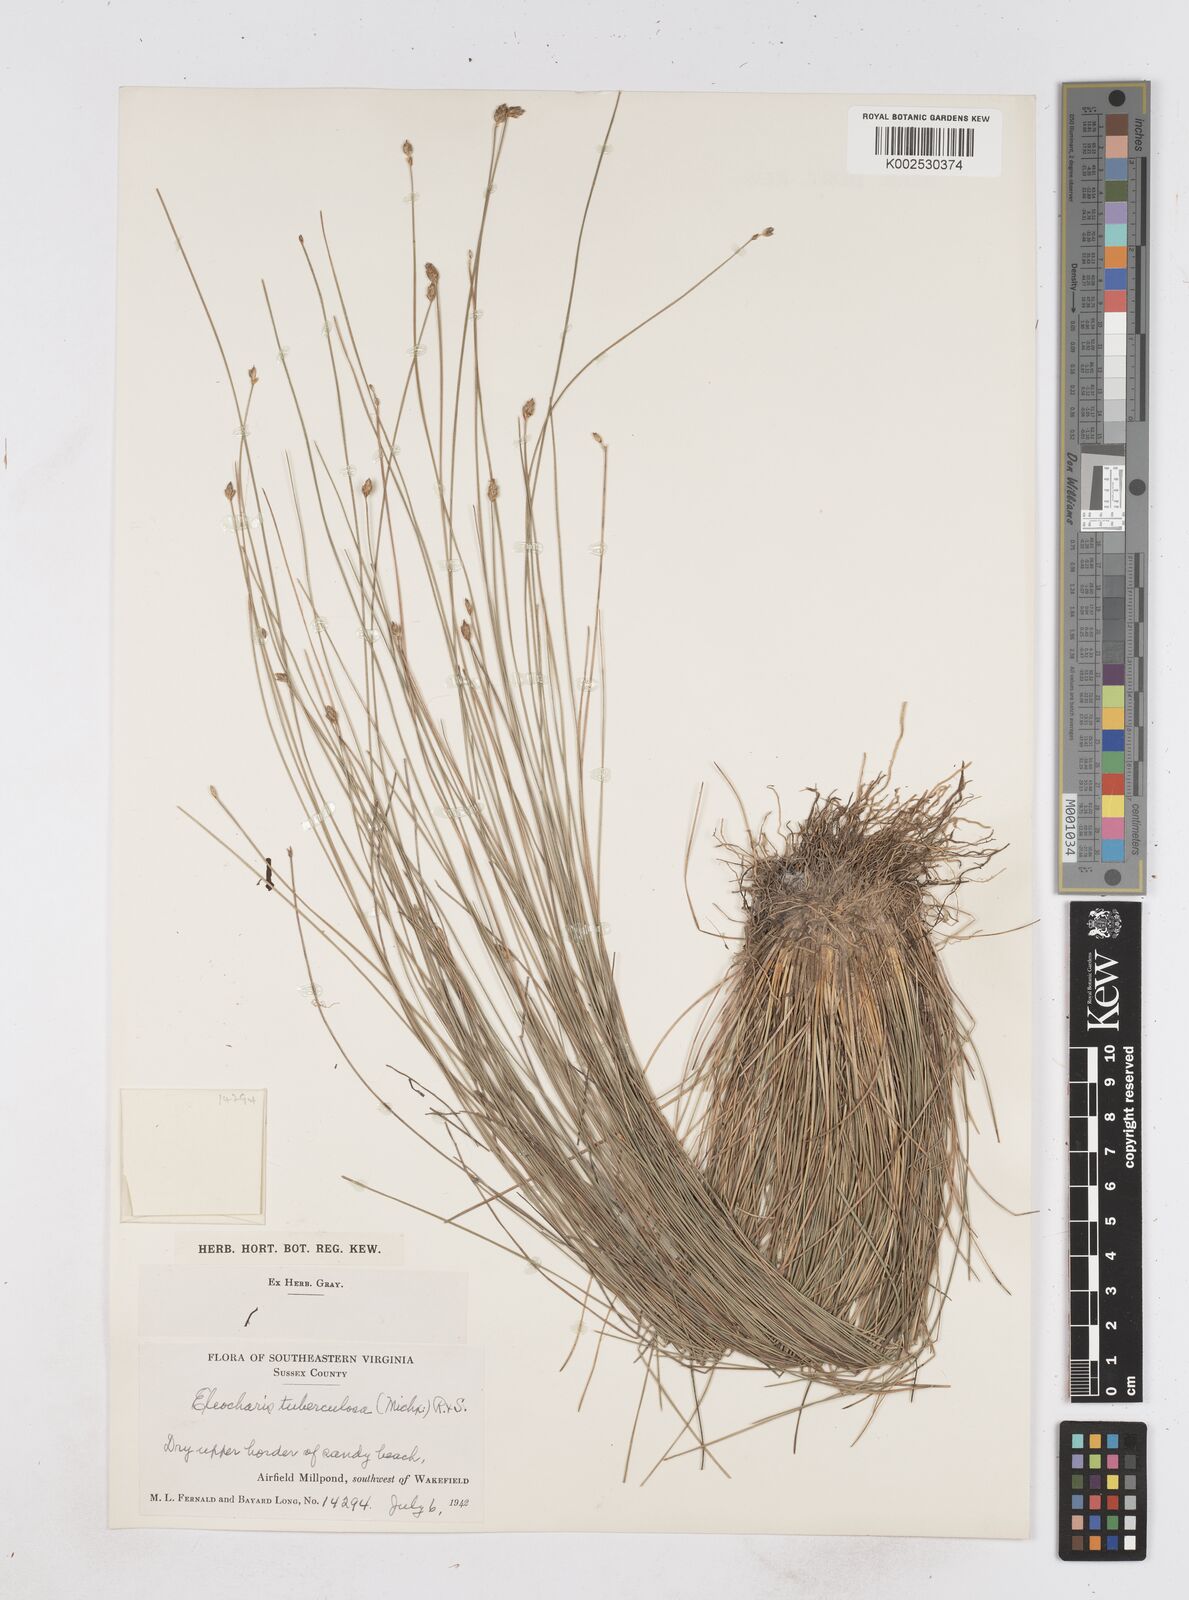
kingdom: Plantae
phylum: Tracheophyta
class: Liliopsida
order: Poales
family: Cyperaceae
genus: Eleocharis
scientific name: Eleocharis tuberculosa
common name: Cone-cup spikerush
